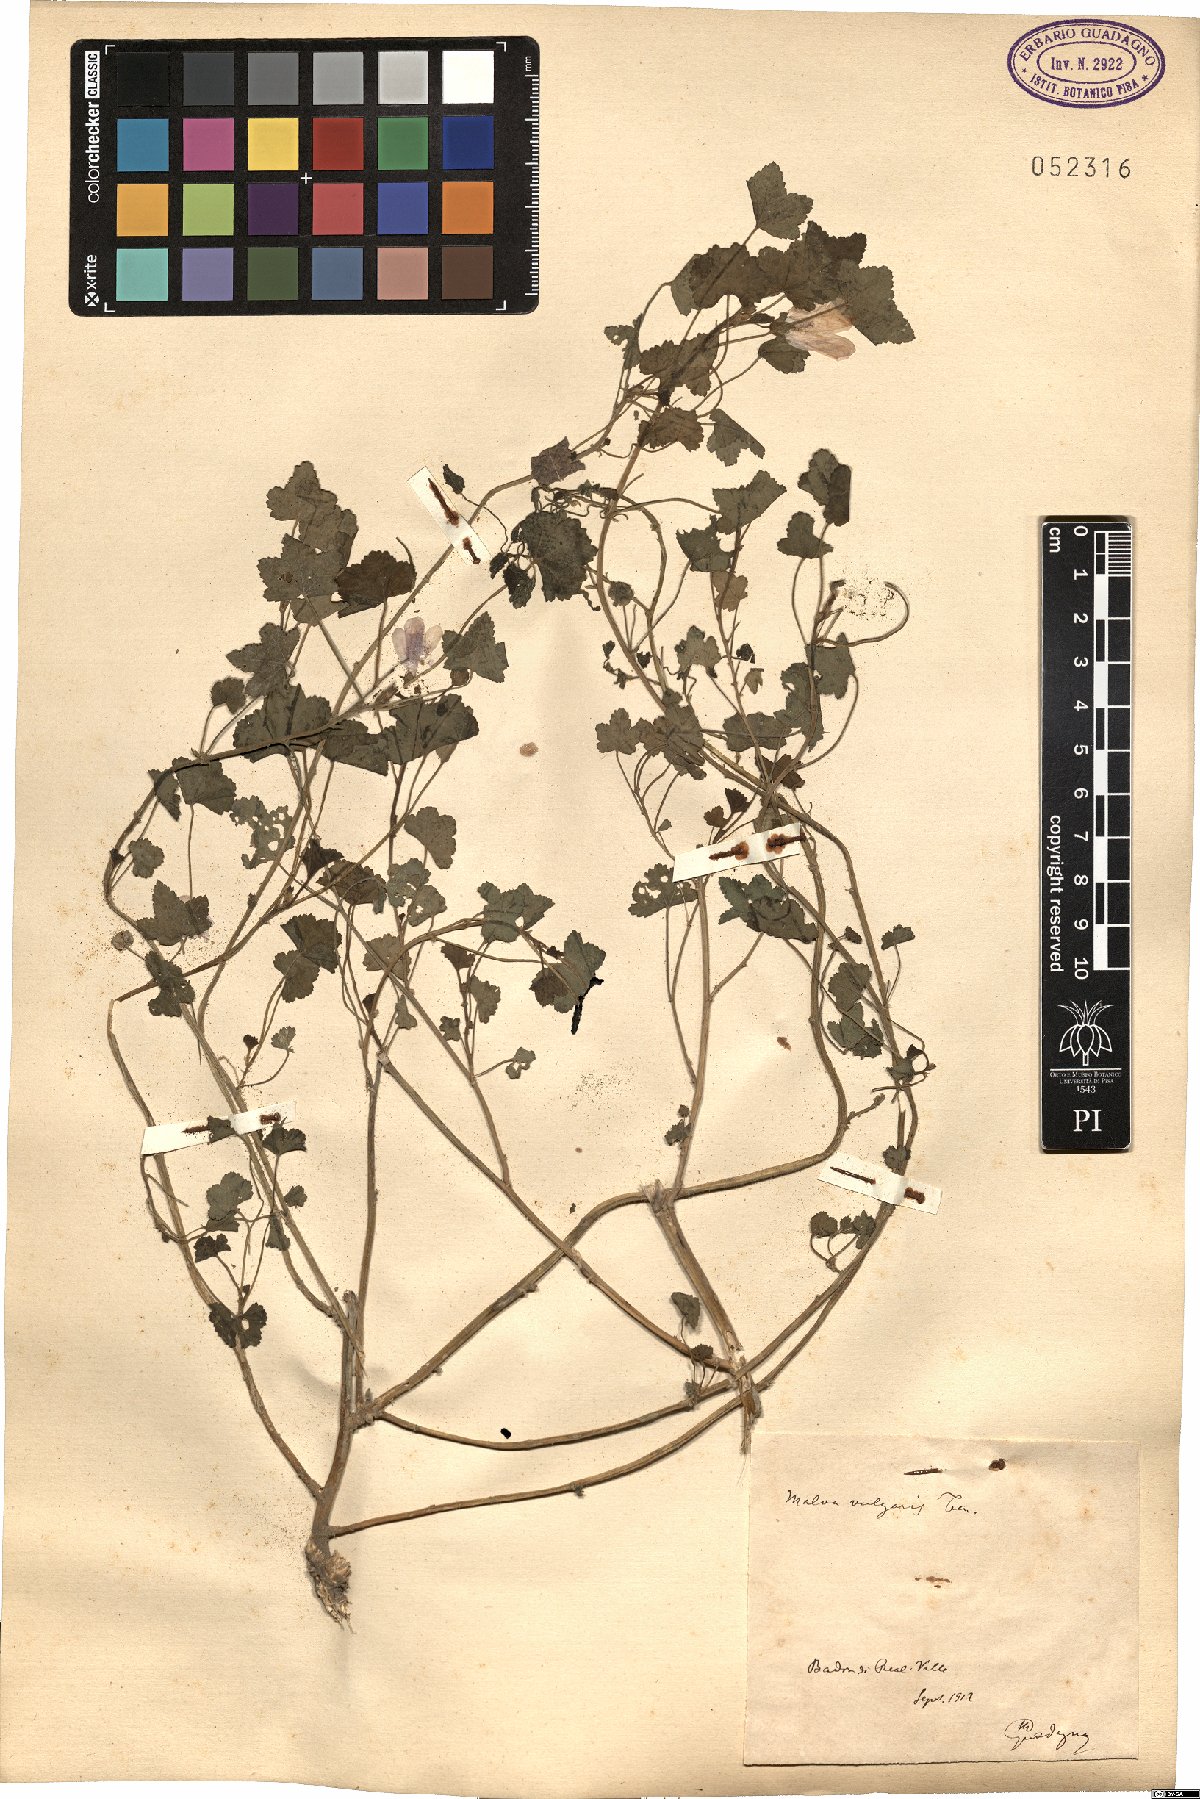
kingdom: Plantae
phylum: Tracheophyta
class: Magnoliopsida
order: Malvales
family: Malvaceae
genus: Malva
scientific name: Malva neglecta
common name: Common mallow
